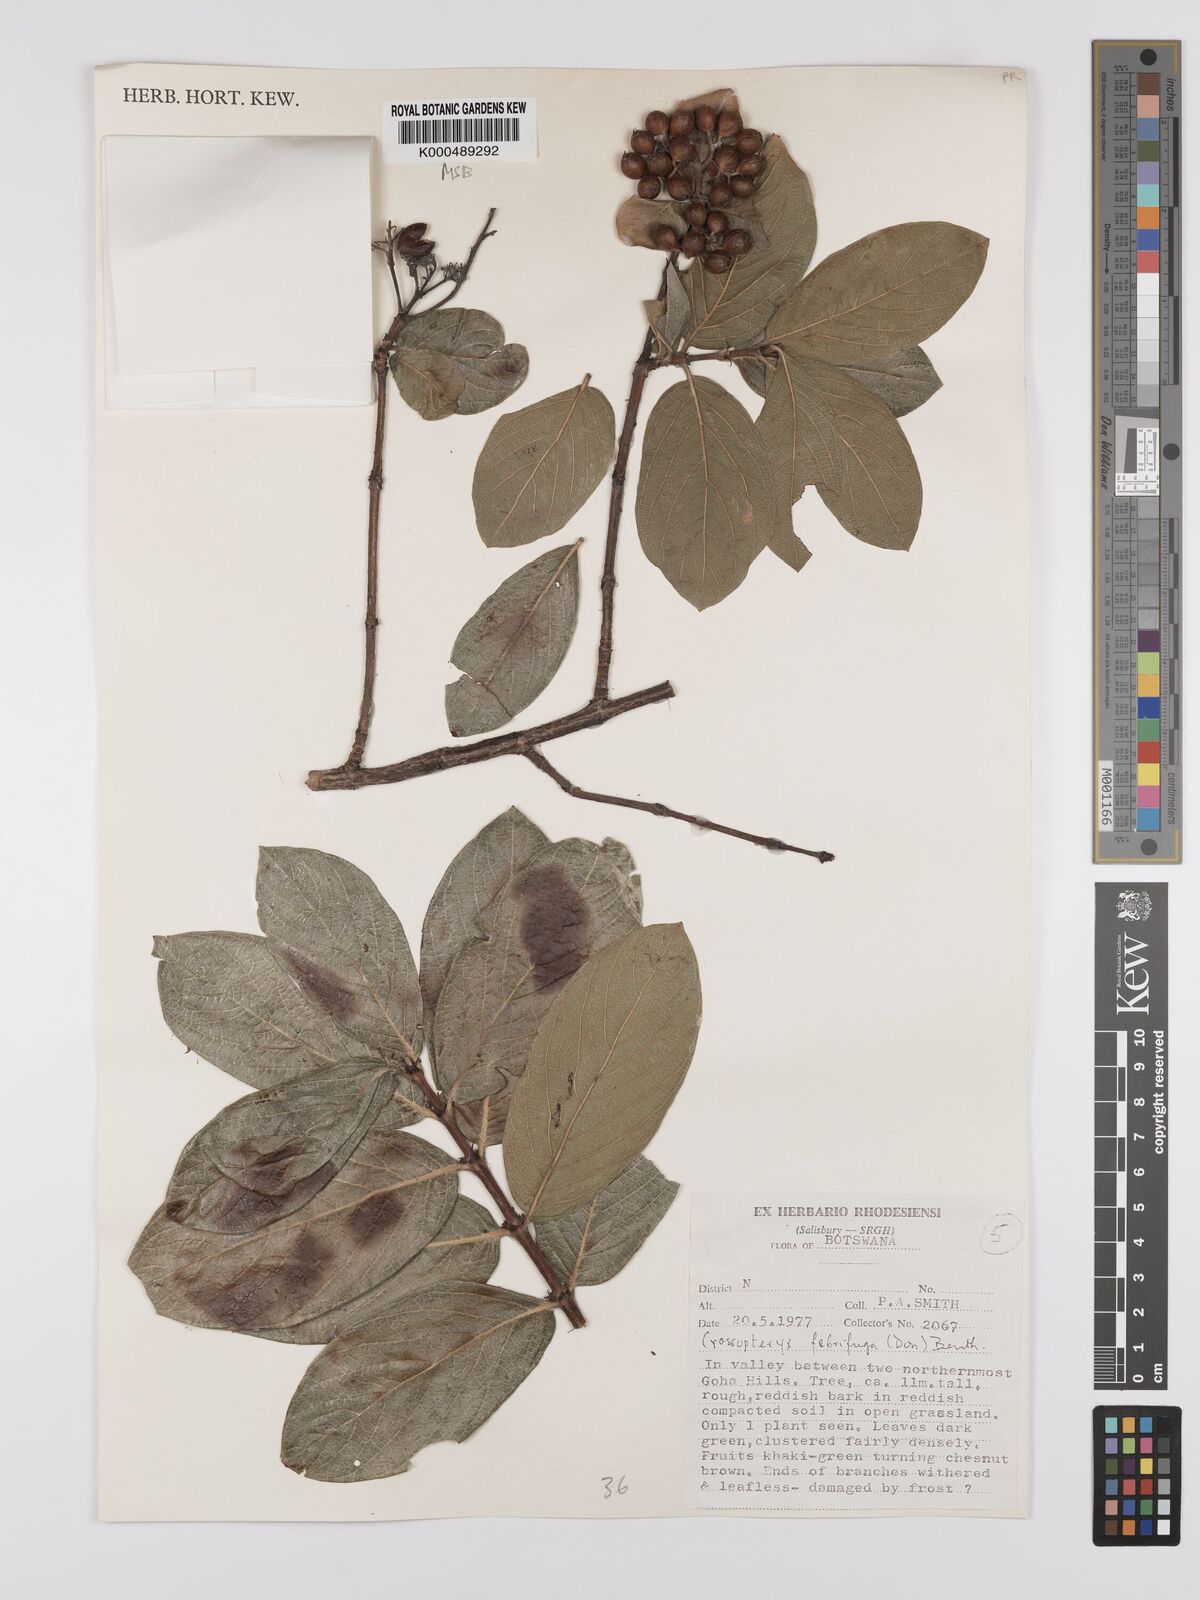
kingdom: Plantae
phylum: Tracheophyta
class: Magnoliopsida
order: Gentianales
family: Rubiaceae
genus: Crossopteryx
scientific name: Crossopteryx febrifuga
